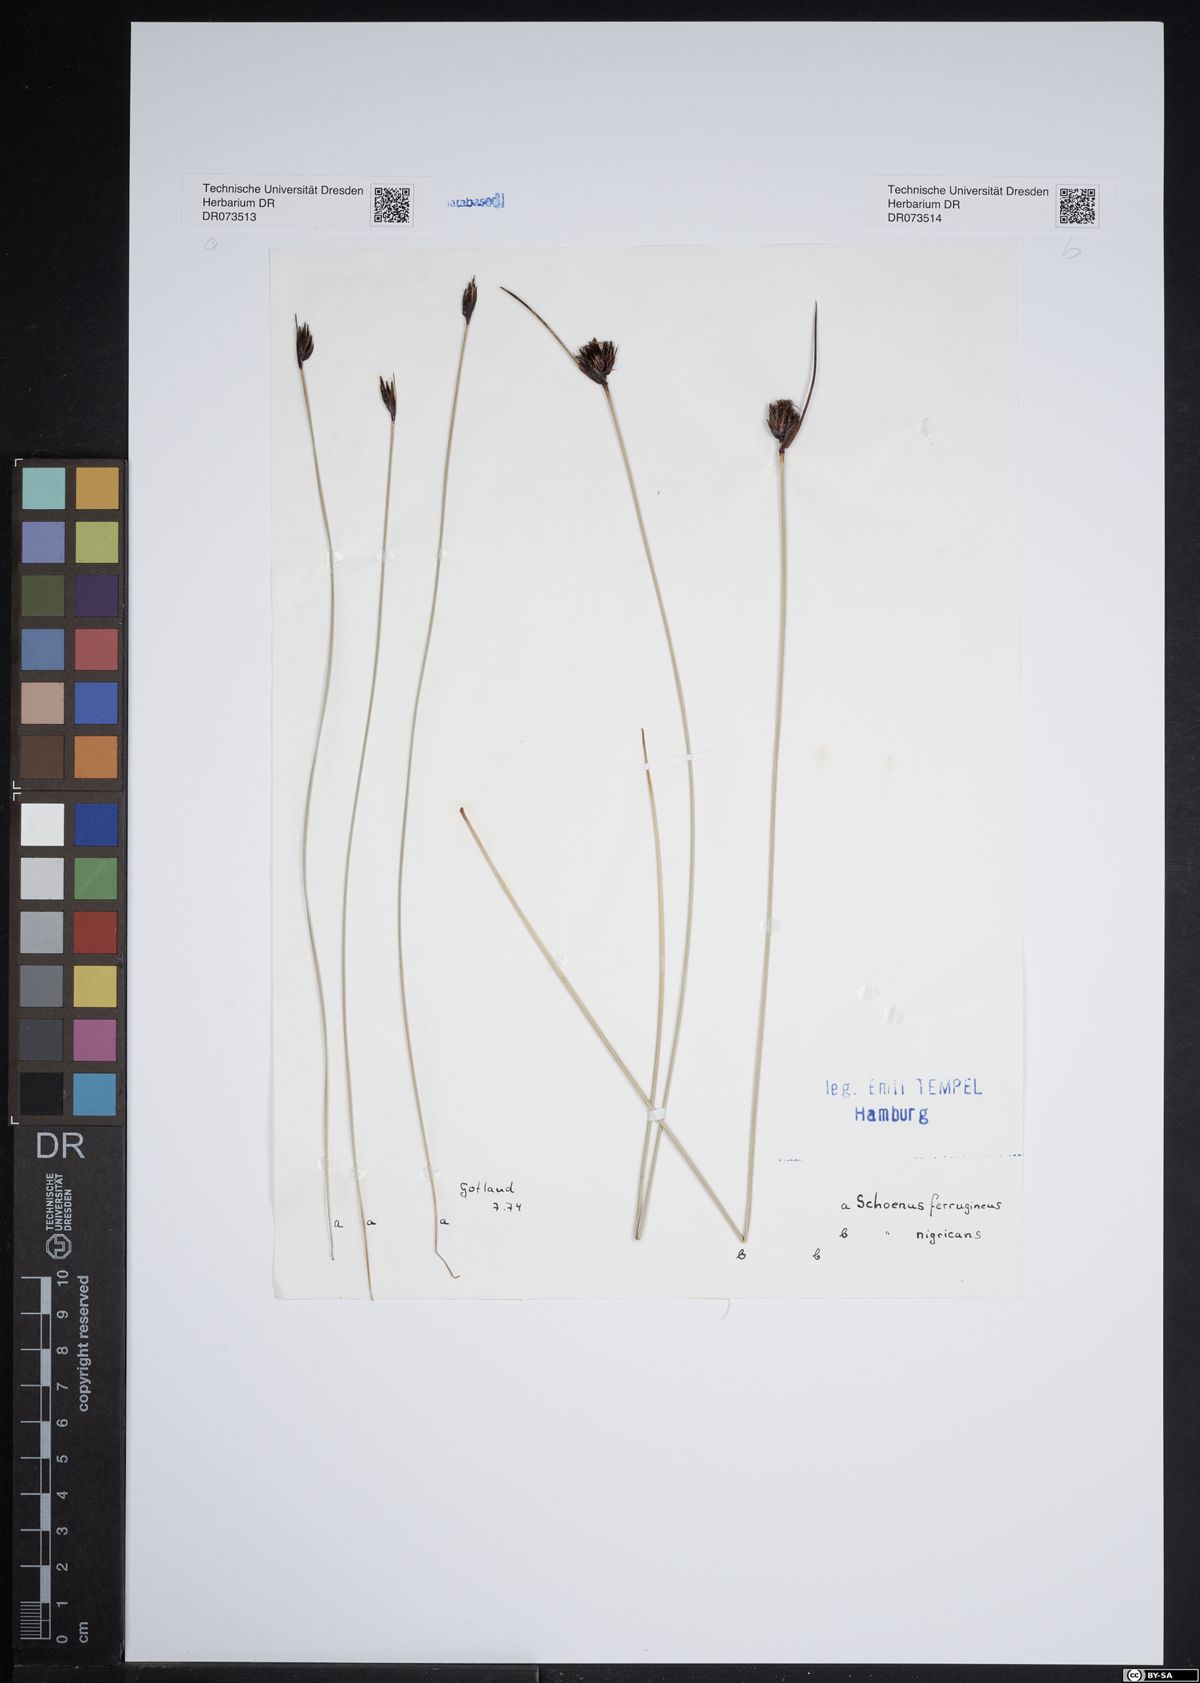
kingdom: Plantae
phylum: Tracheophyta
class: Liliopsida
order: Poales
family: Cyperaceae
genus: Schoenus
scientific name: Schoenus ferrugineus
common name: Brown bog-rush
